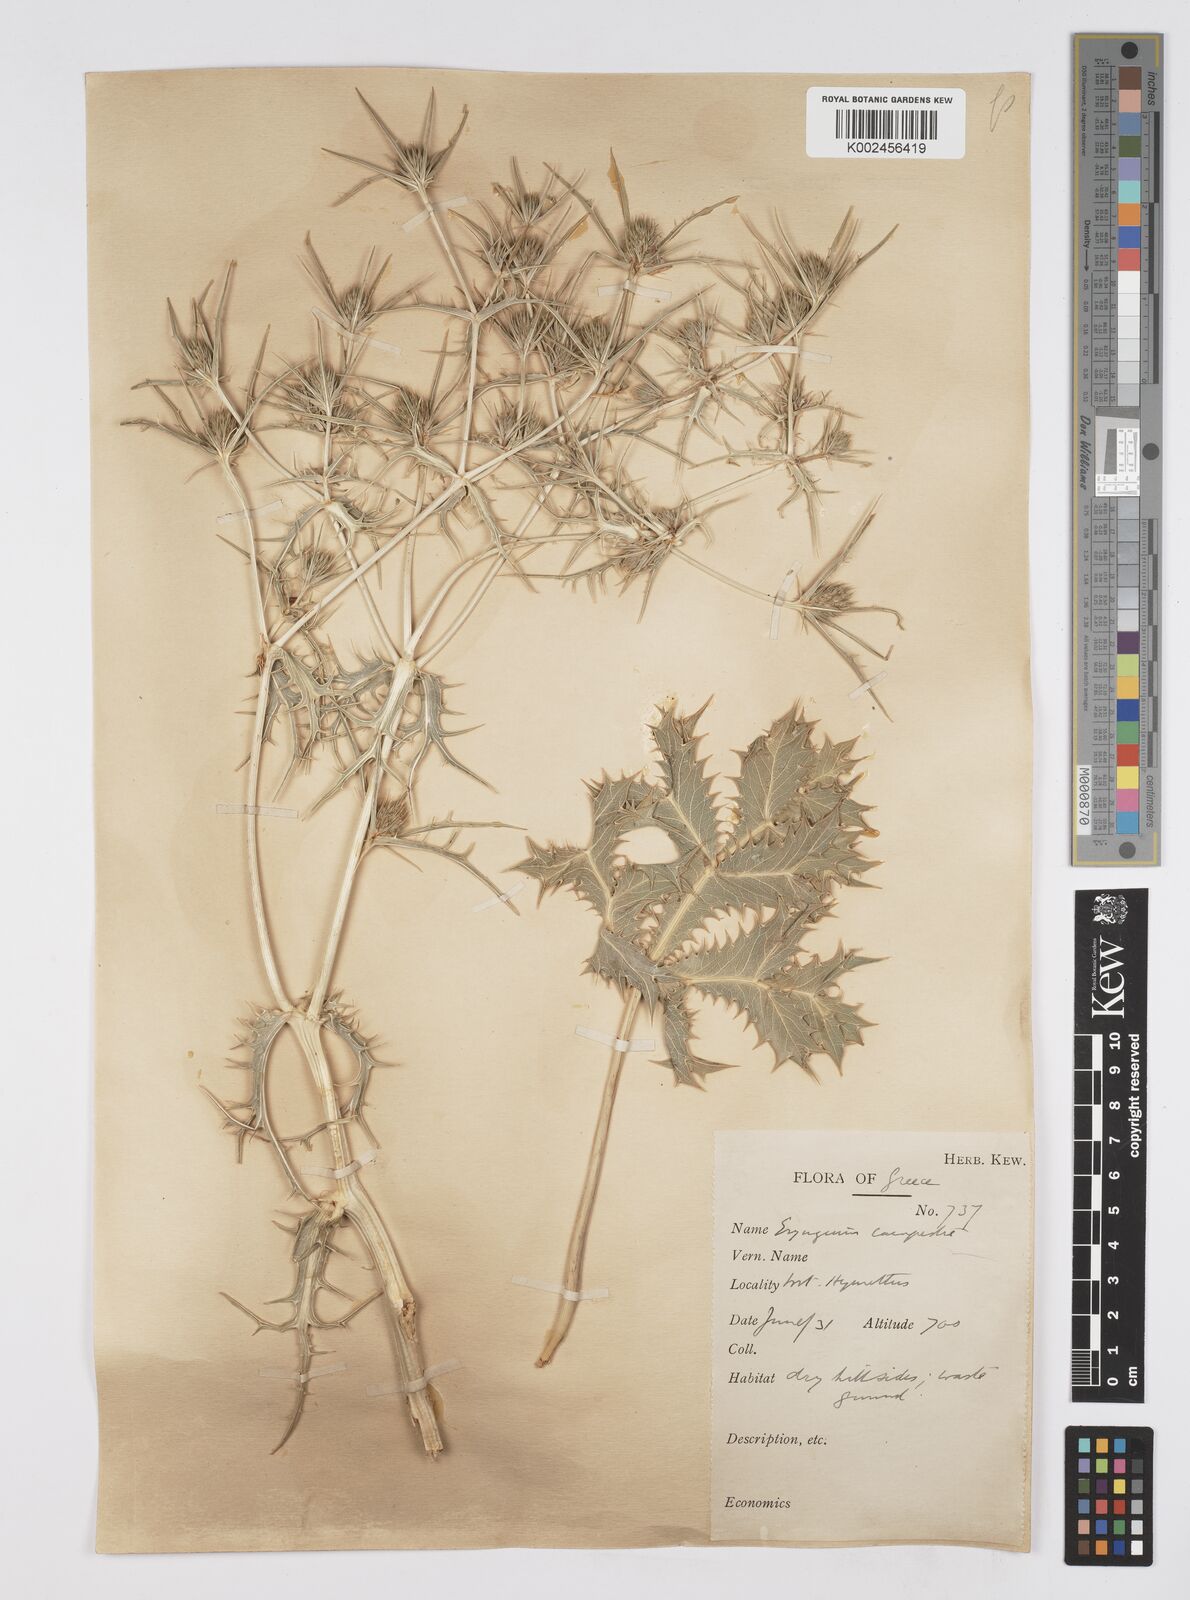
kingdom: Plantae
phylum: Tracheophyta
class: Magnoliopsida
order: Apiales
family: Apiaceae
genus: Eryngium
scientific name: Eryngium campestre
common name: Field eryngo
